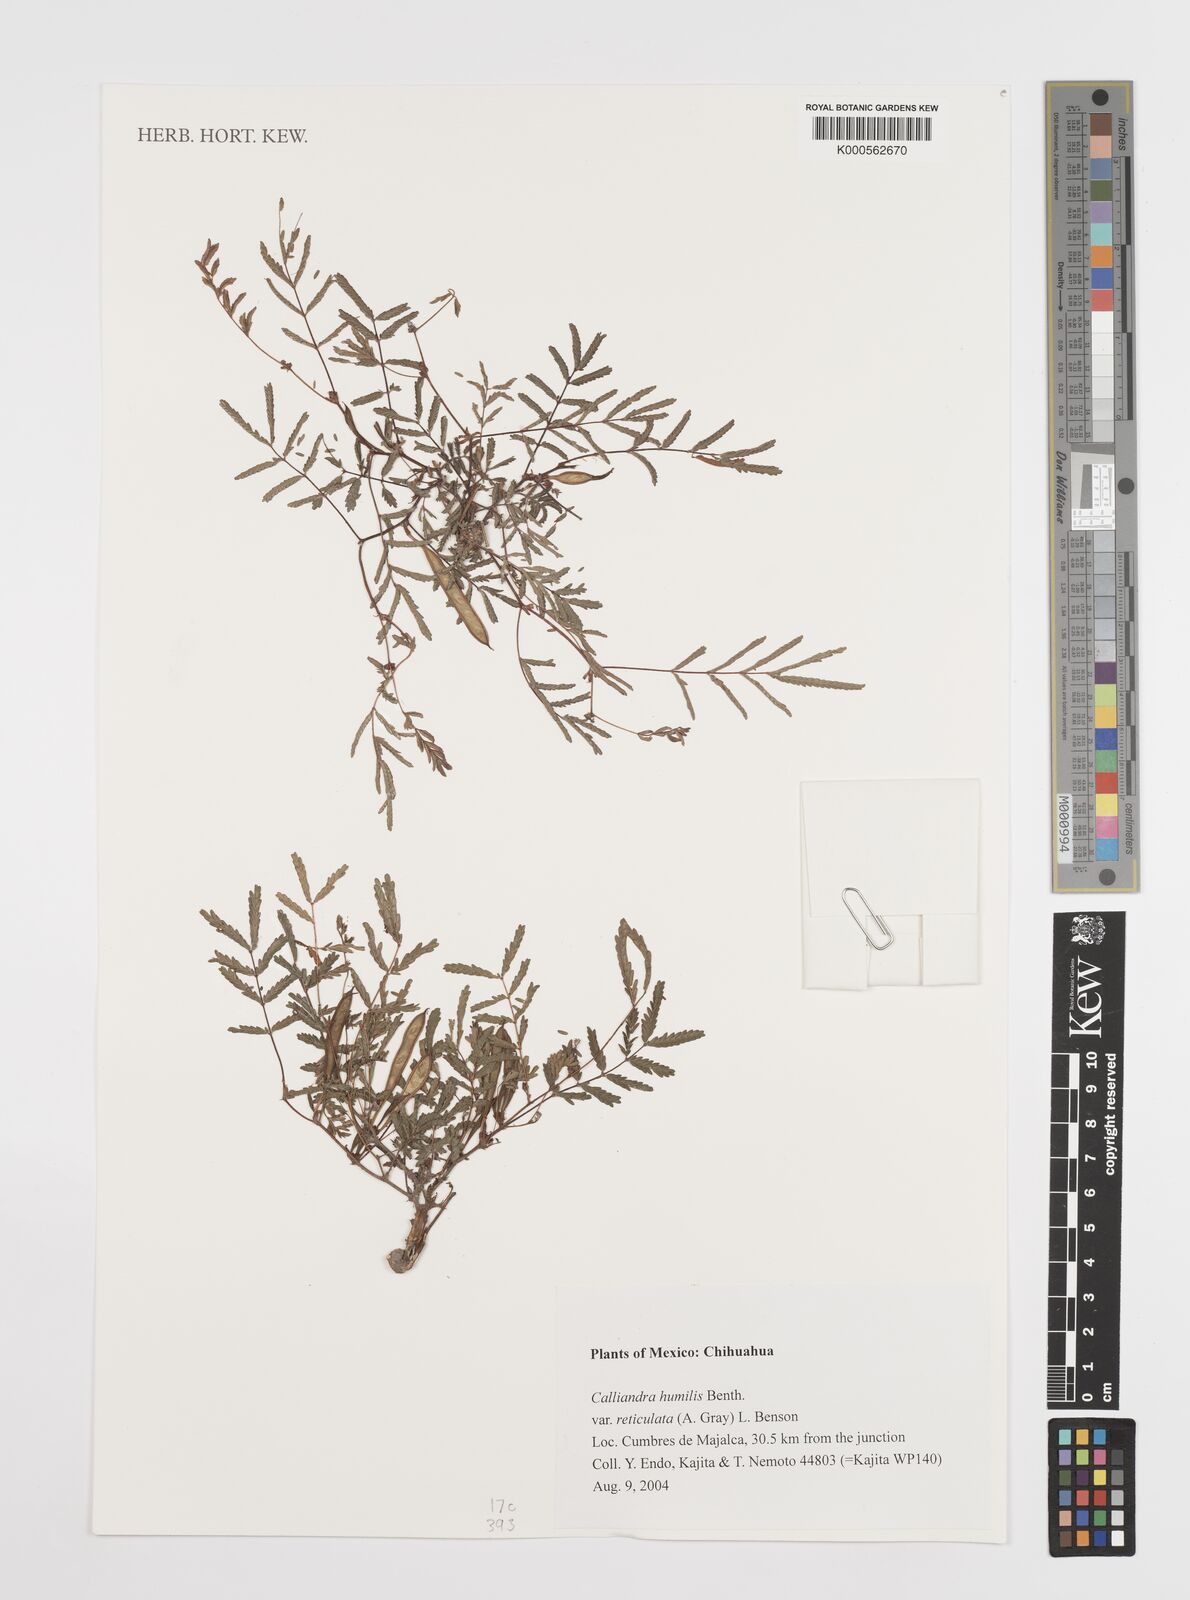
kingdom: Plantae
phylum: Tracheophyta
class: Magnoliopsida
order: Fabales
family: Fabaceae
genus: Calliandra
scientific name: Calliandra humilis
